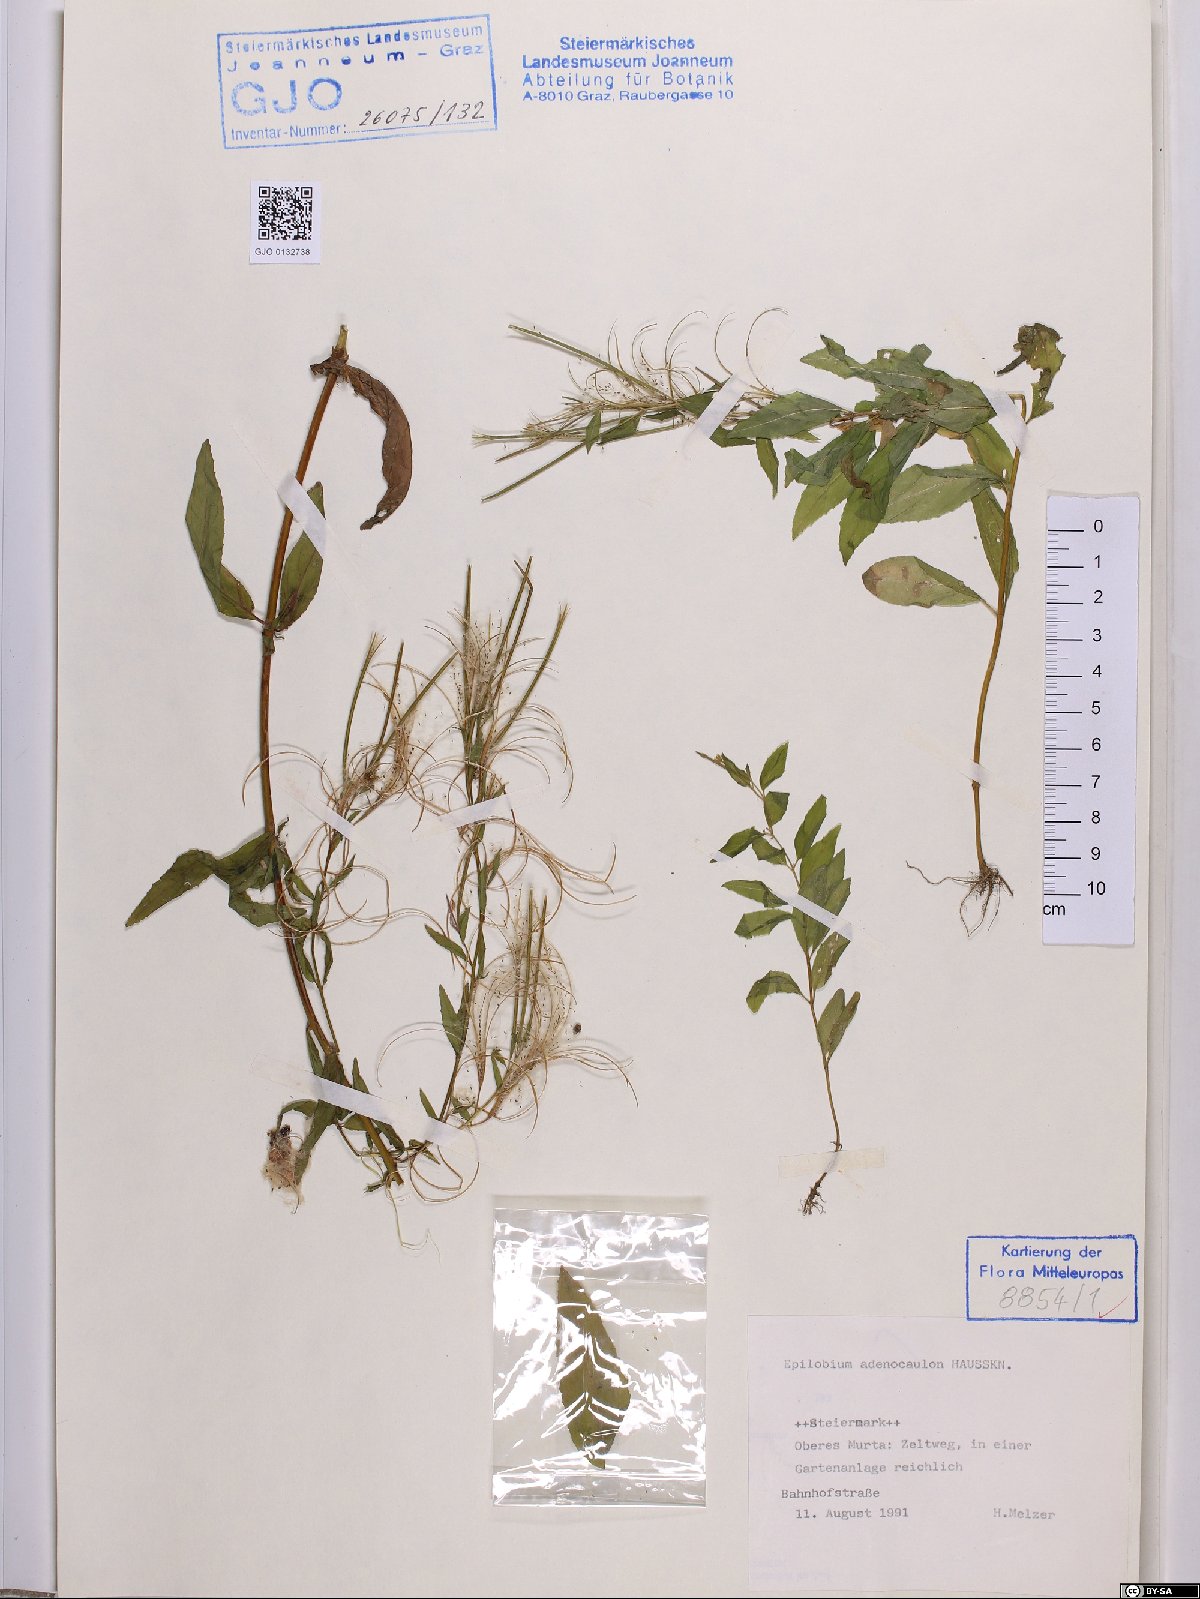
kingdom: Plantae
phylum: Tracheophyta
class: Magnoliopsida
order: Myrtales
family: Onagraceae
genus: Epilobium
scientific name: Epilobium ciliatum
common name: American willowherb
